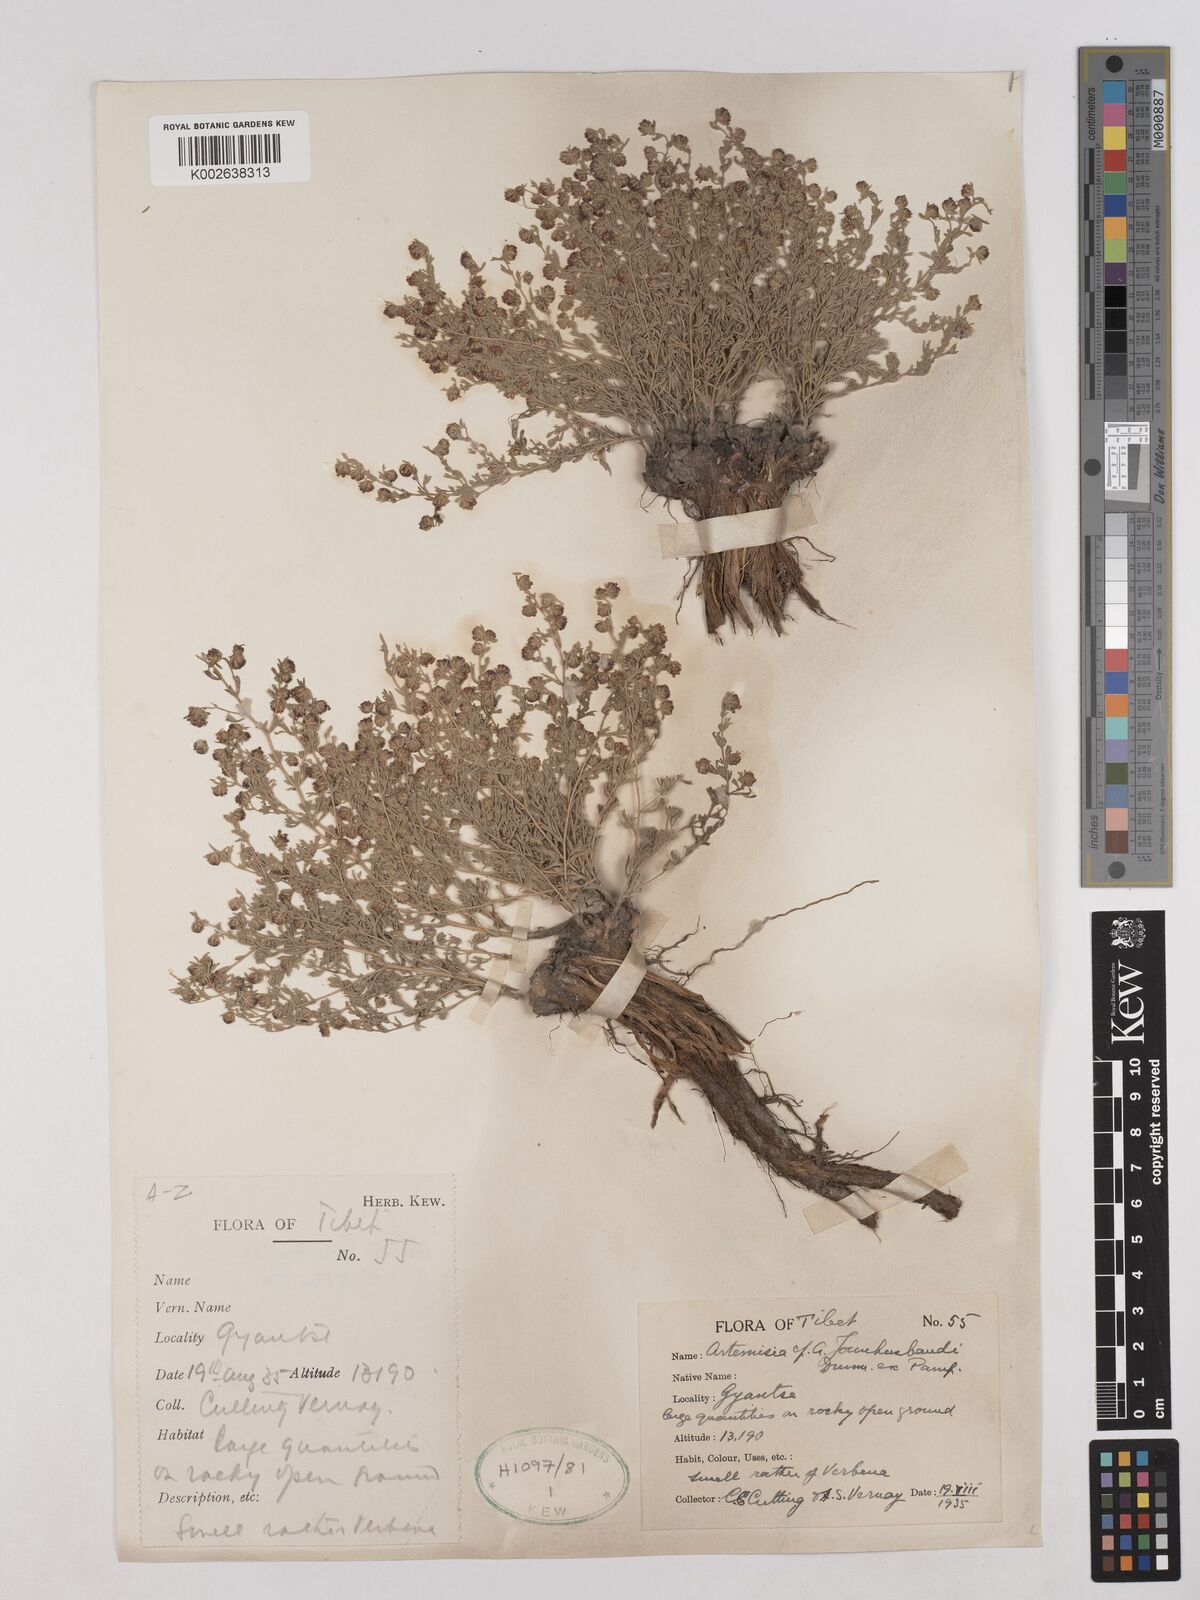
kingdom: Plantae
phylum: Tracheophyta
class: Magnoliopsida
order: Asterales
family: Asteraceae
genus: Artemisia
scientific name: Artemisia younghusbandii
